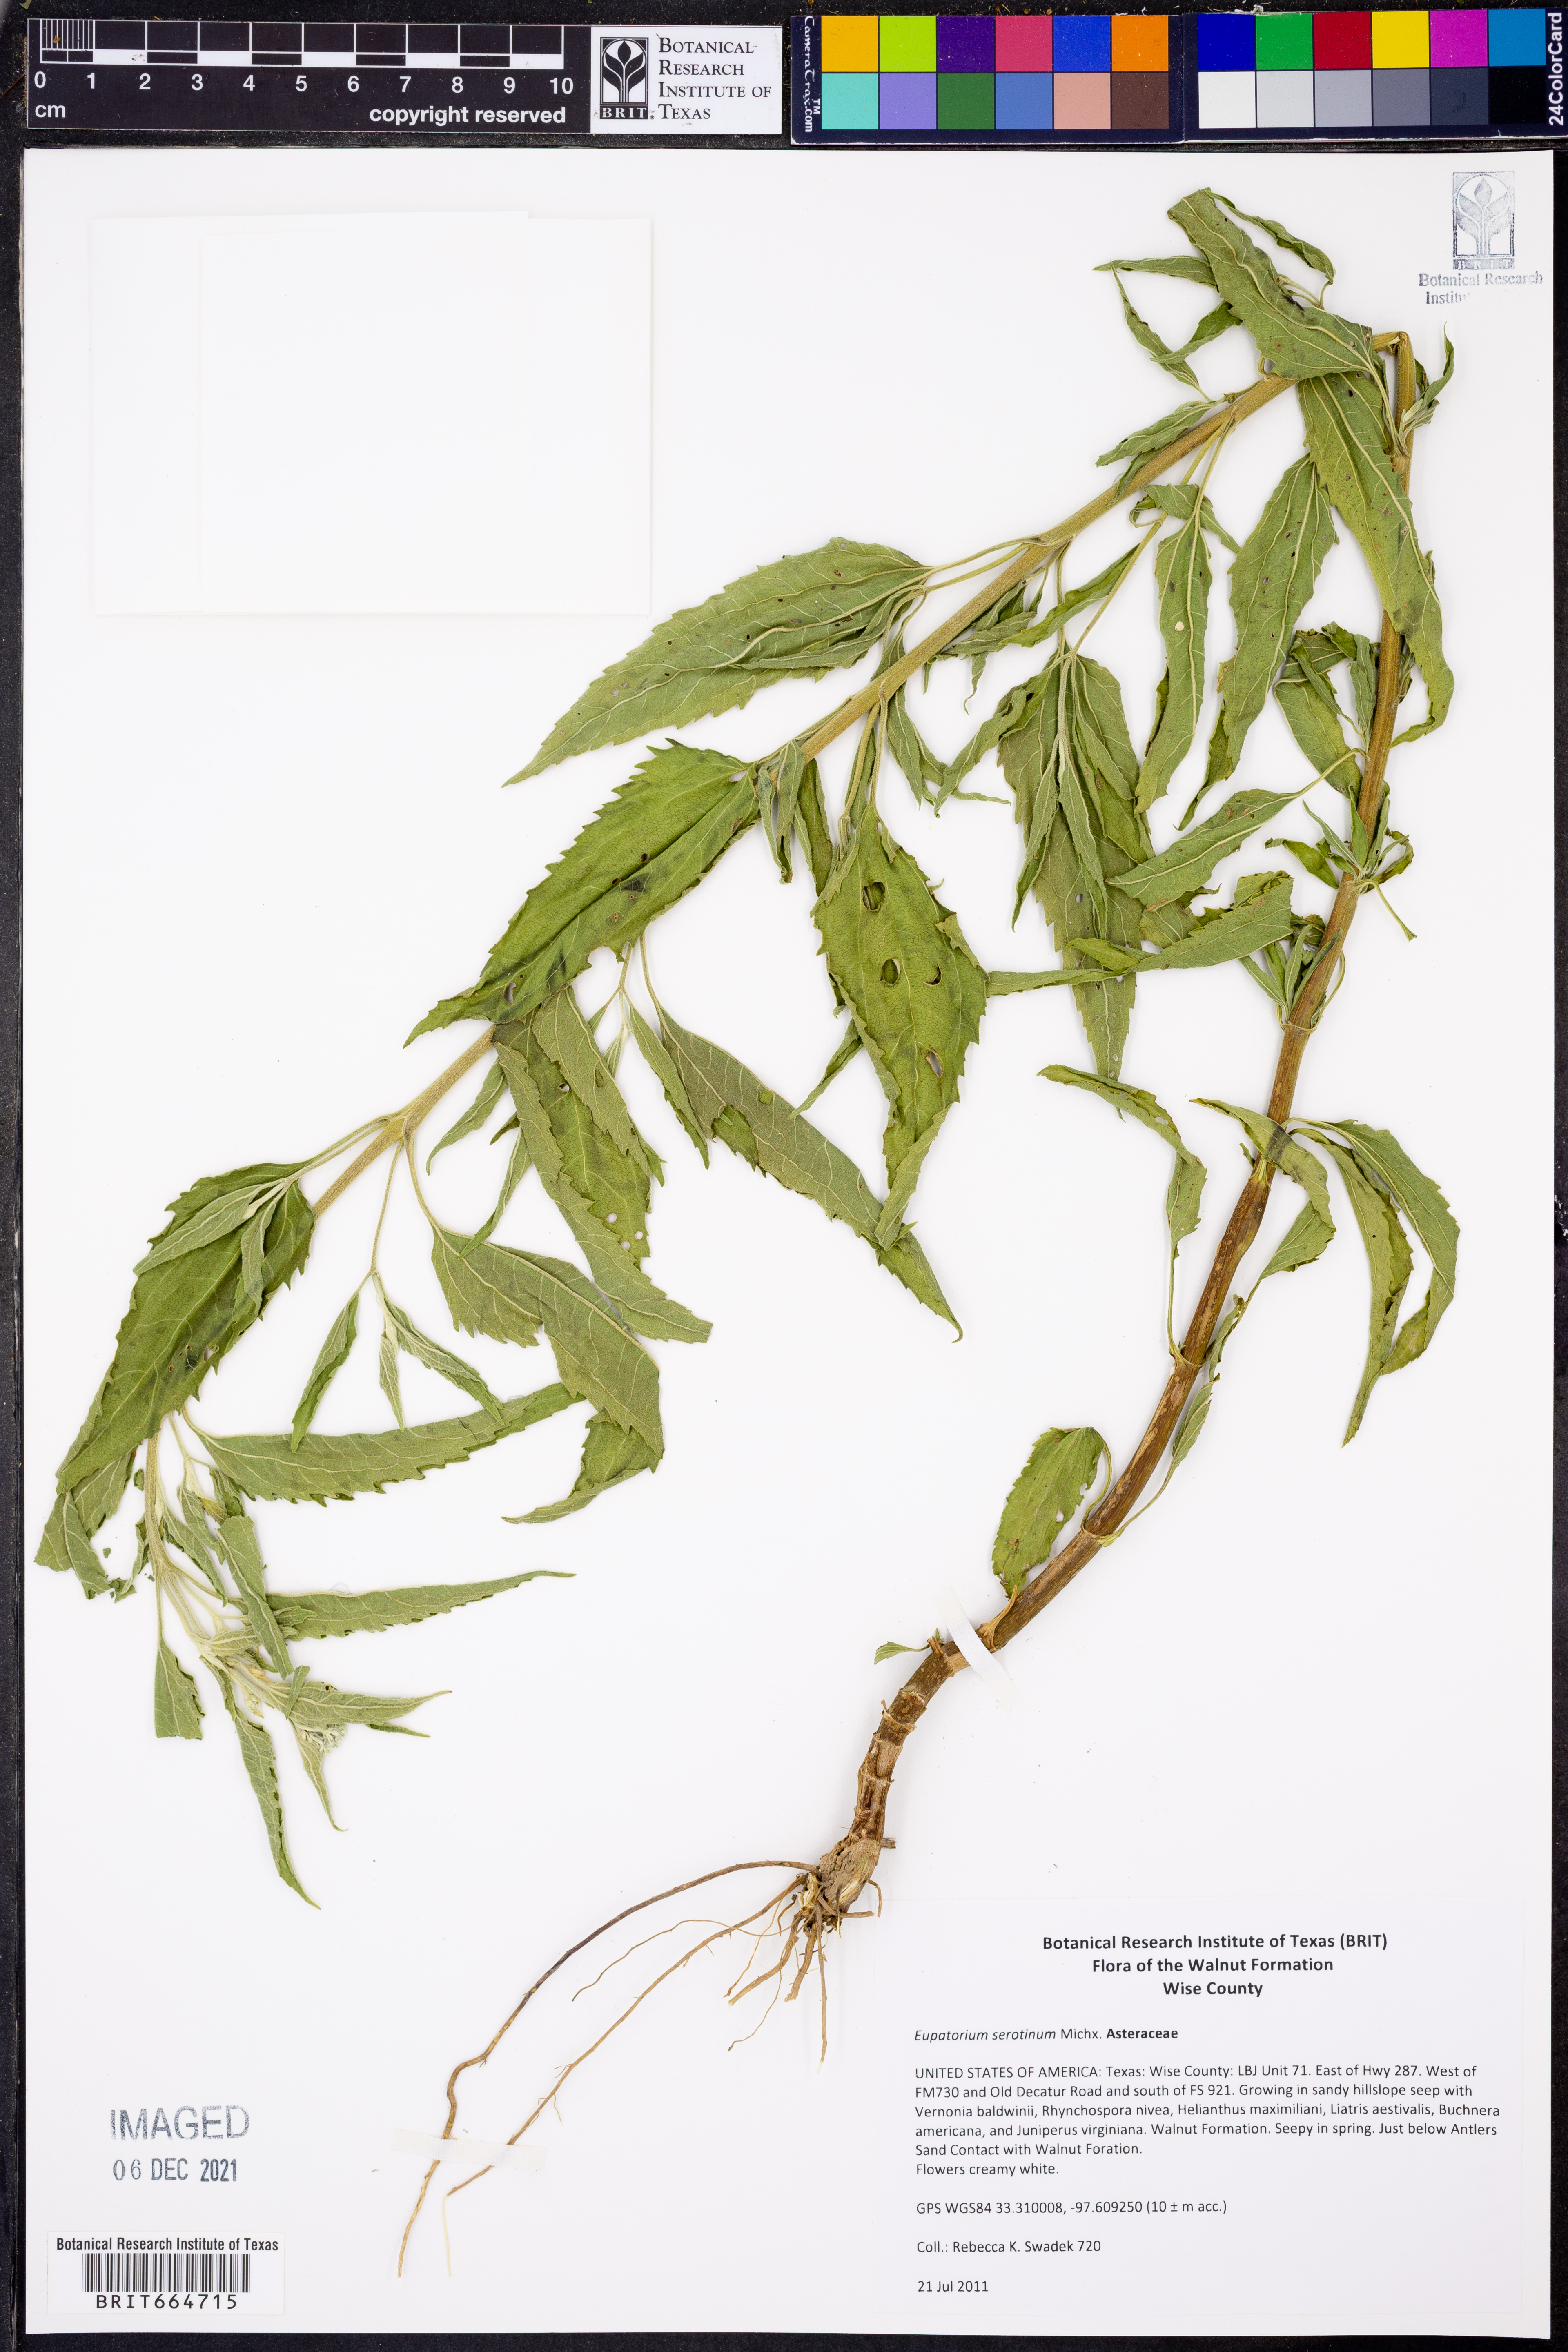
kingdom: Plantae
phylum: Tracheophyta
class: Magnoliopsida
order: Asterales
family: Asteraceae
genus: Eupatorium
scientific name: Eupatorium serotinum
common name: Late boneset
